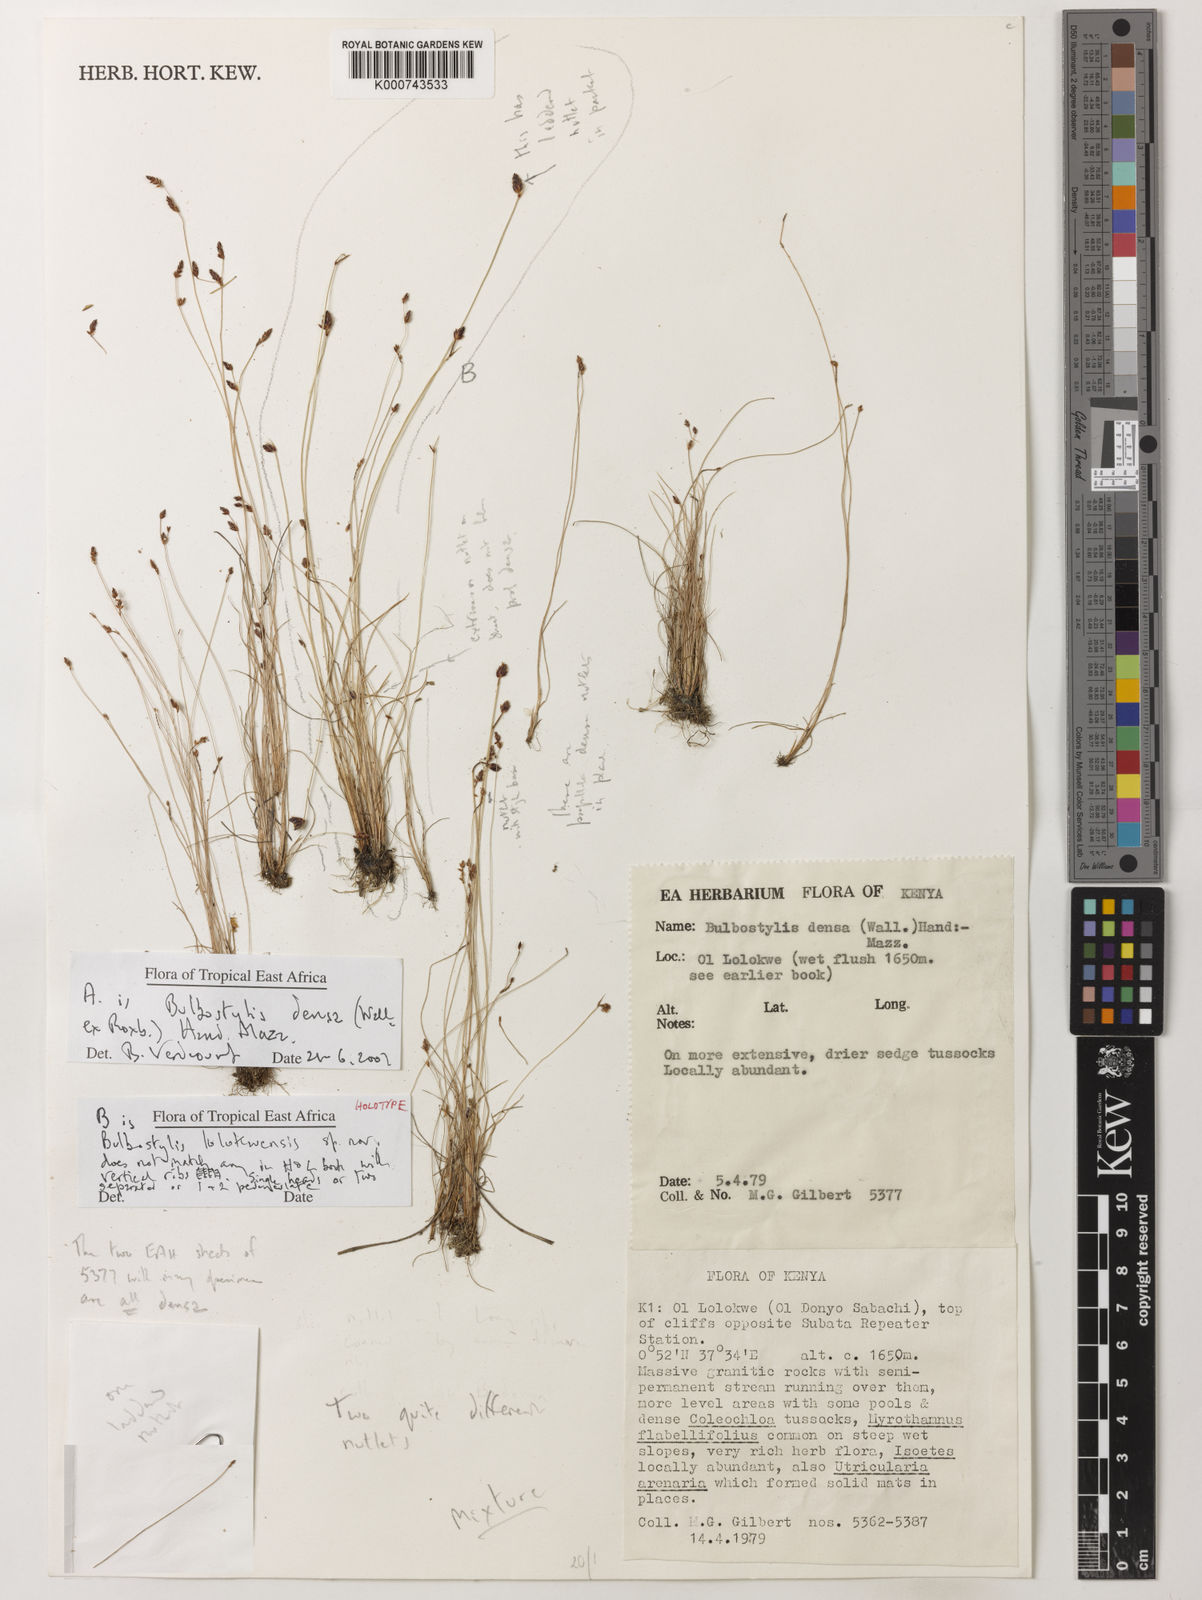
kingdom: Plantae
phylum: Tracheophyta
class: Liliopsida
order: Poales
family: Cyperaceae
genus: Bulbostylis
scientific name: Bulbostylis lolokweensis
